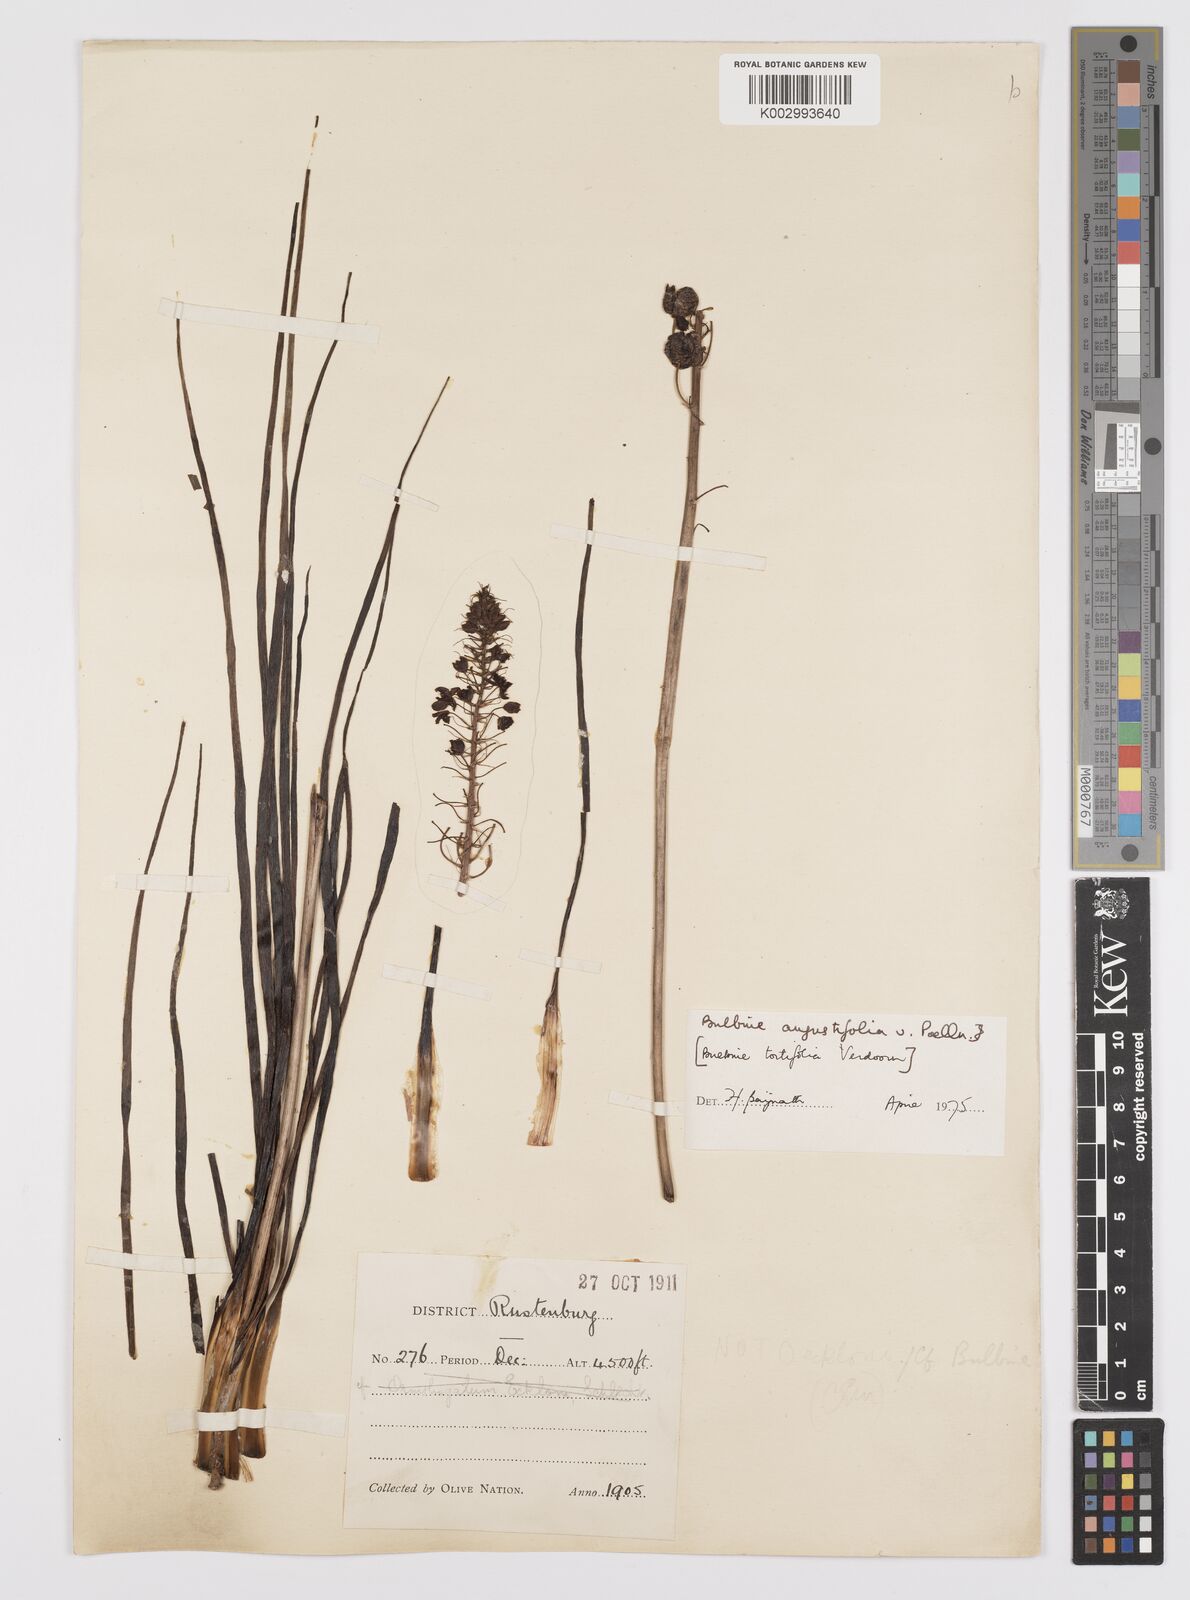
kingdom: Plantae
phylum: Tracheophyta
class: Liliopsida
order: Asparagales
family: Asphodelaceae
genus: Bulbine
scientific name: Bulbine angustifolia
